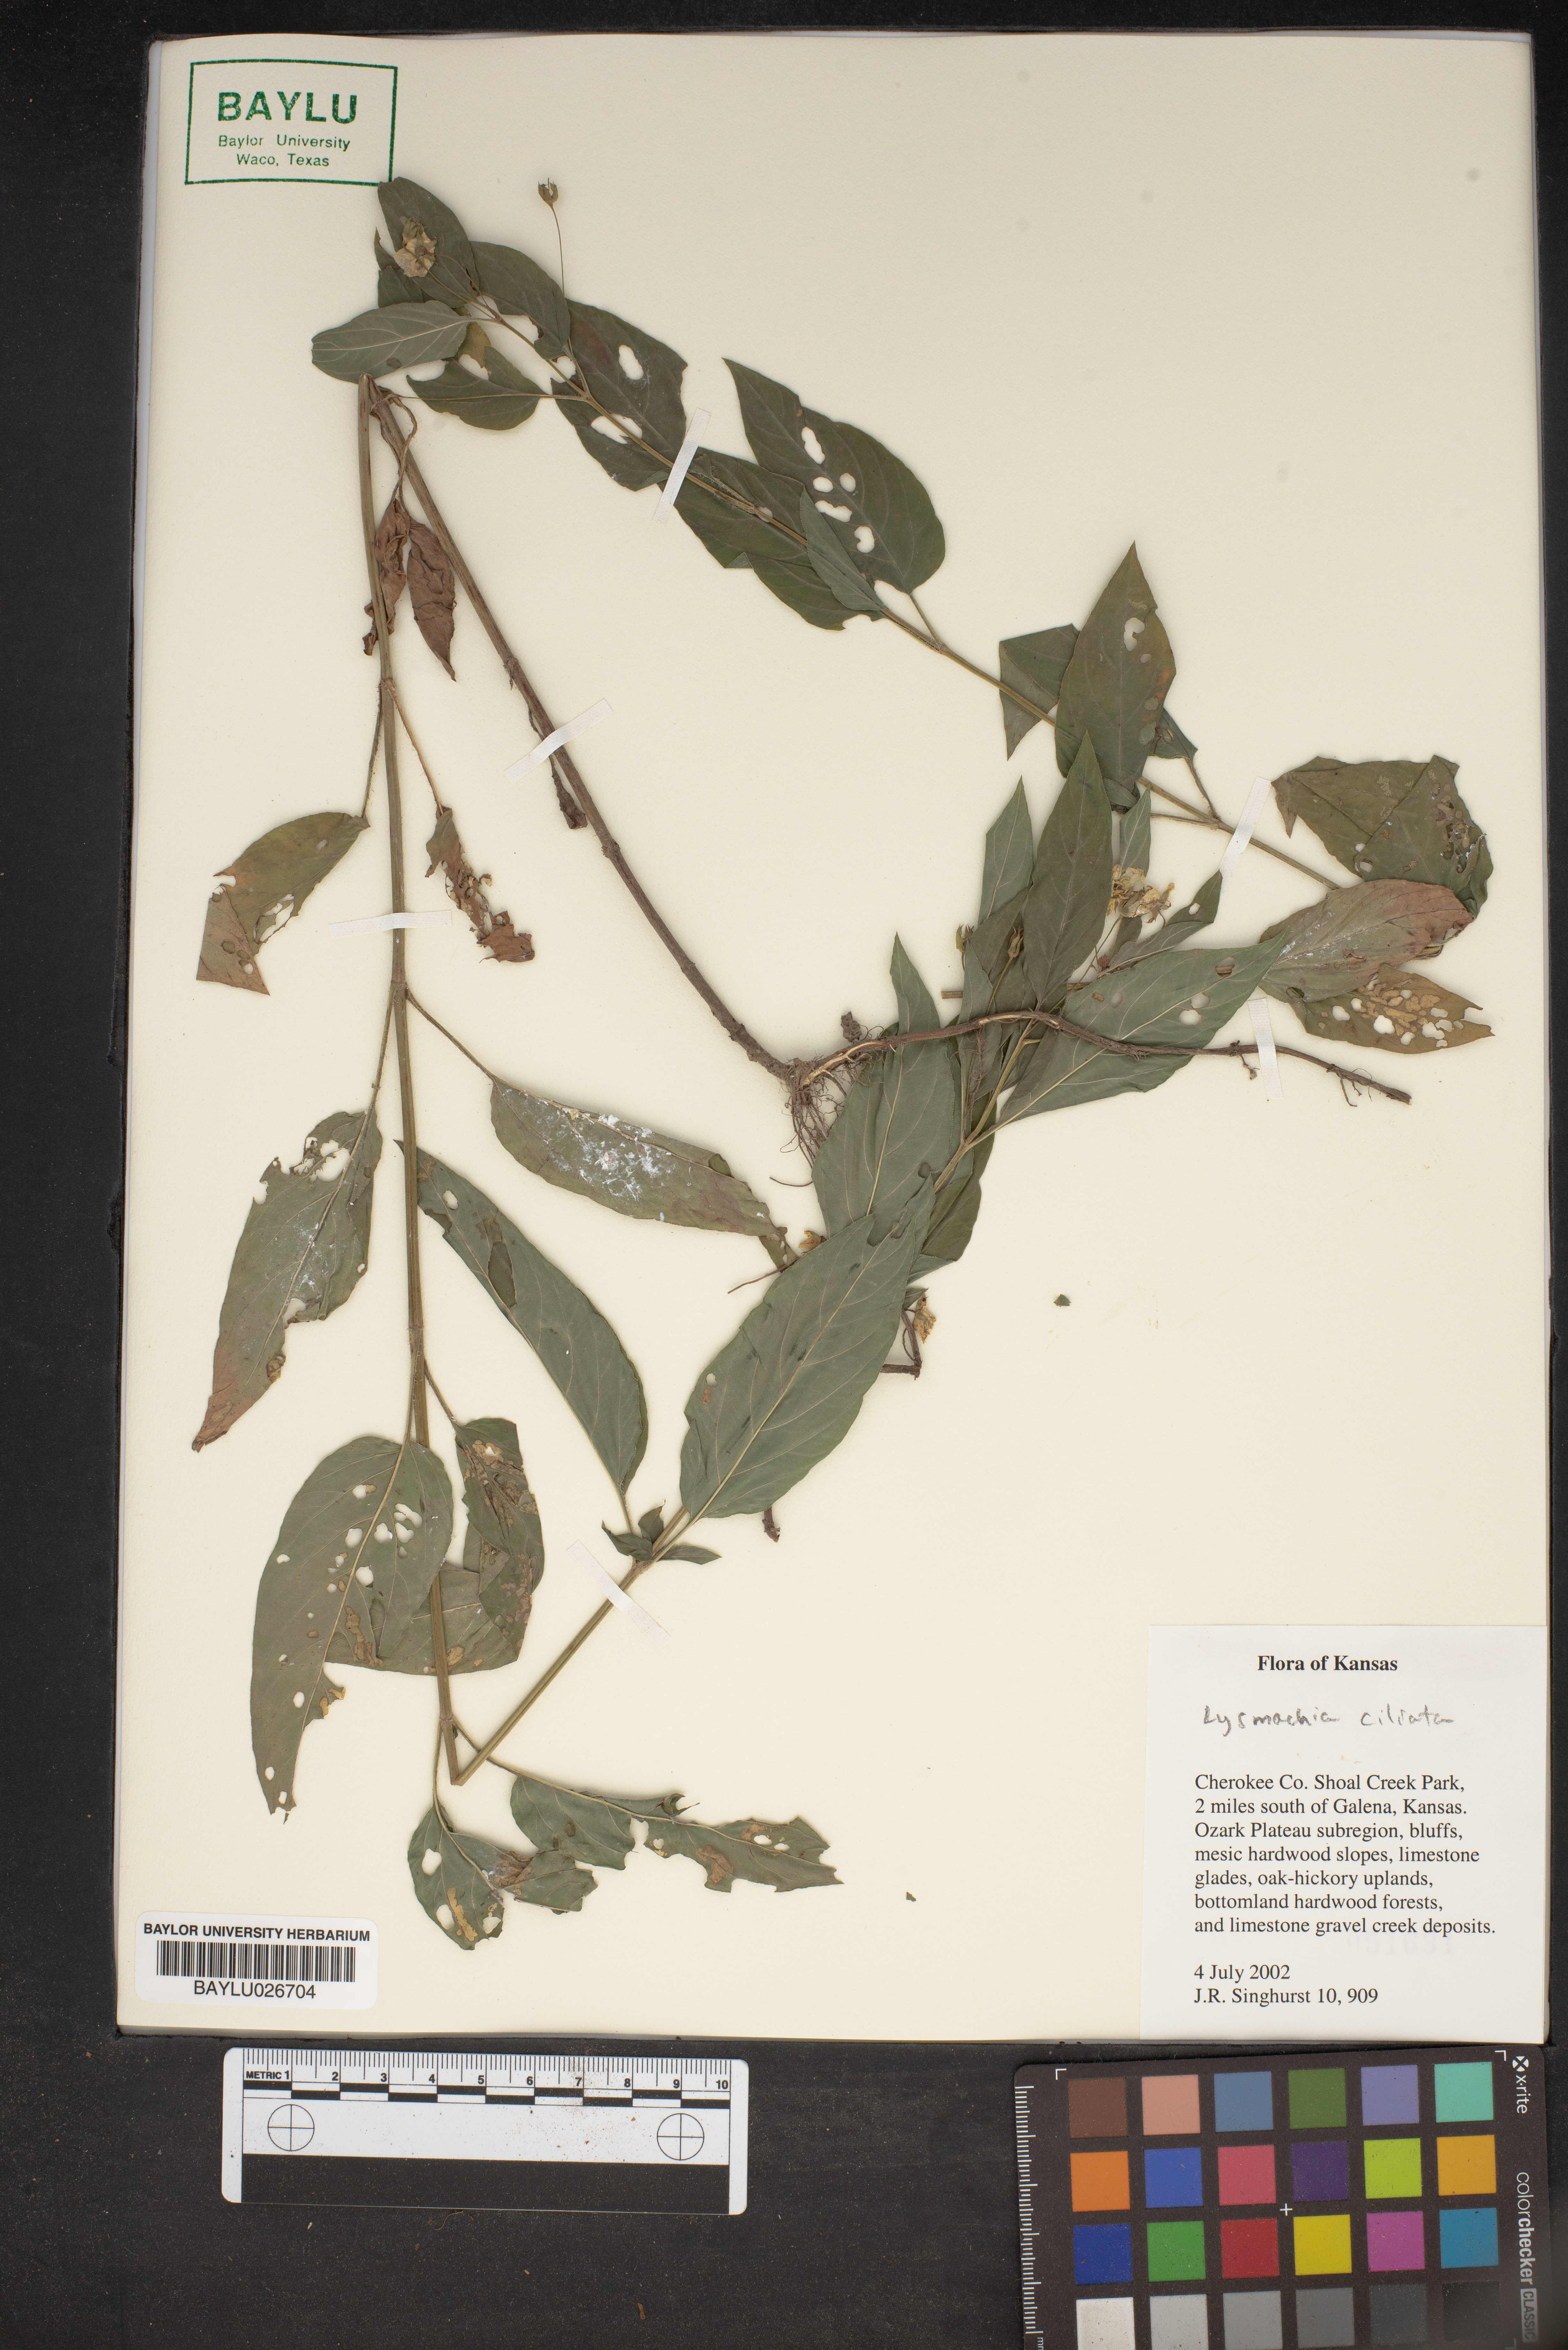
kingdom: Plantae
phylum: Tracheophyta
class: Magnoliopsida
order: Ericales
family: Primulaceae
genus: Lysimachia
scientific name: Lysimachia ciliata
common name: Fringed loosestrife
